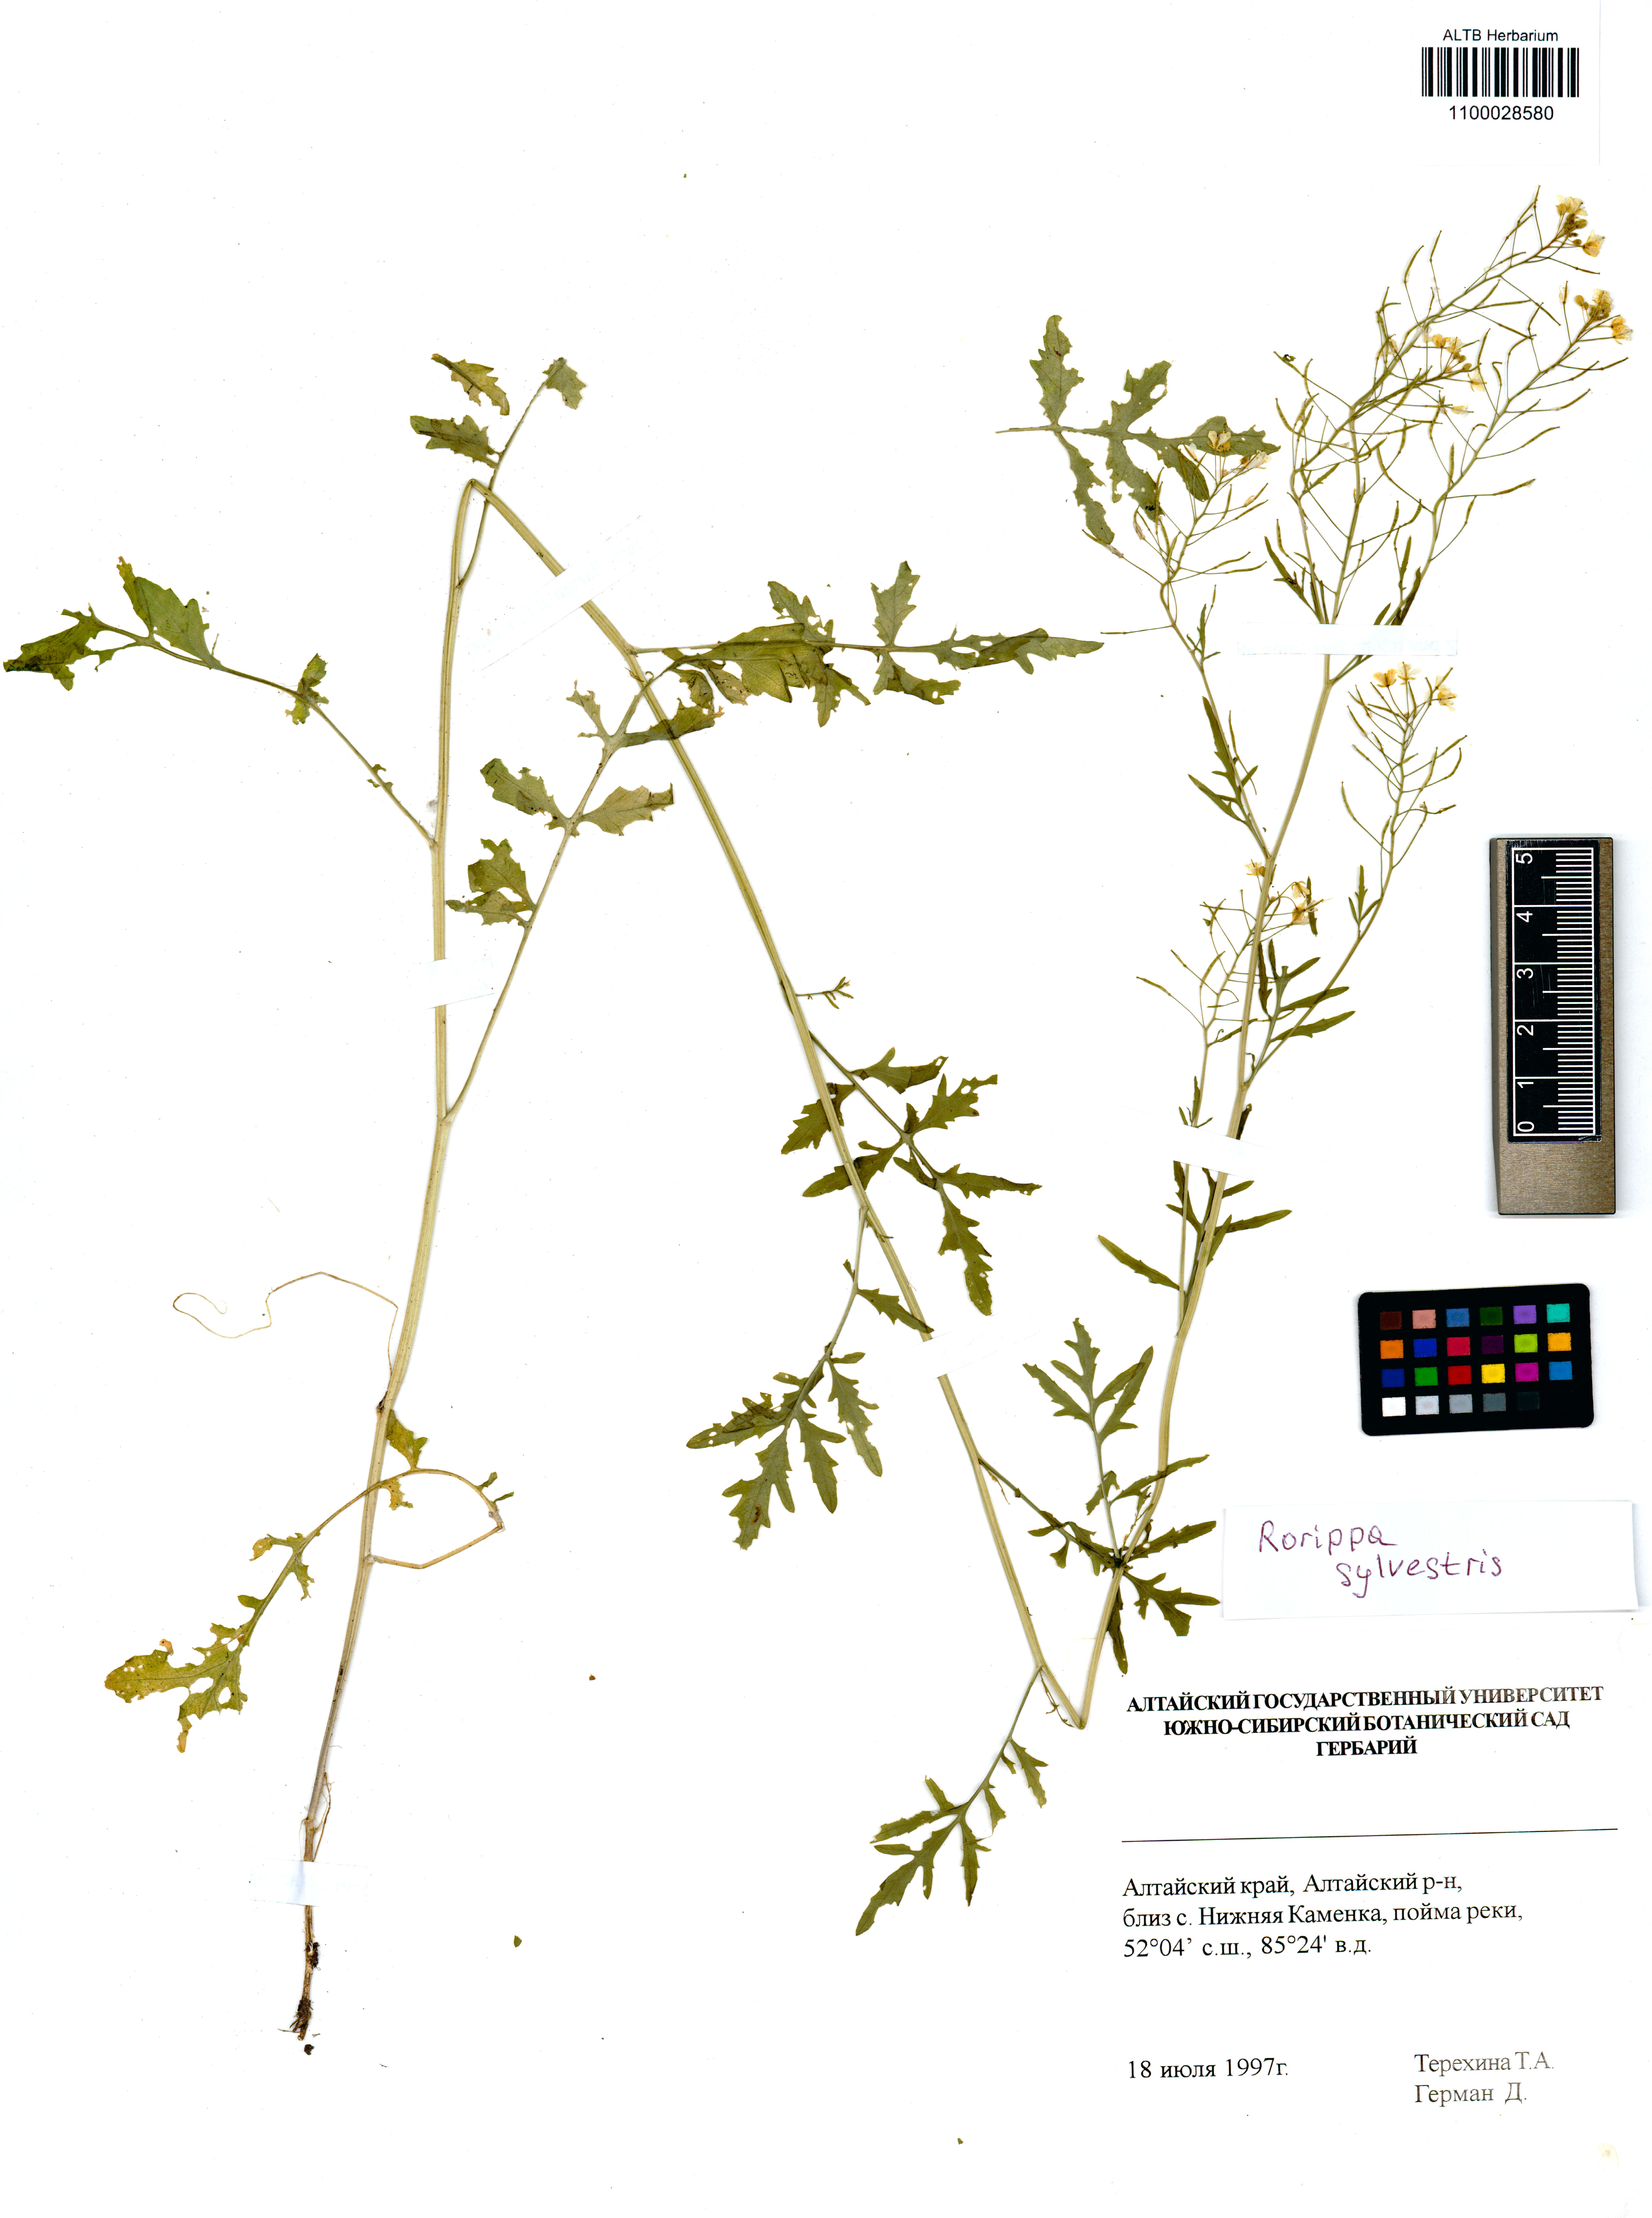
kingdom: Plantae
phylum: Tracheophyta
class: Magnoliopsida
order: Brassicales
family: Brassicaceae
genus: Rorippa
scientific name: Rorippa sylvestris
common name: Creeping yellowcress
